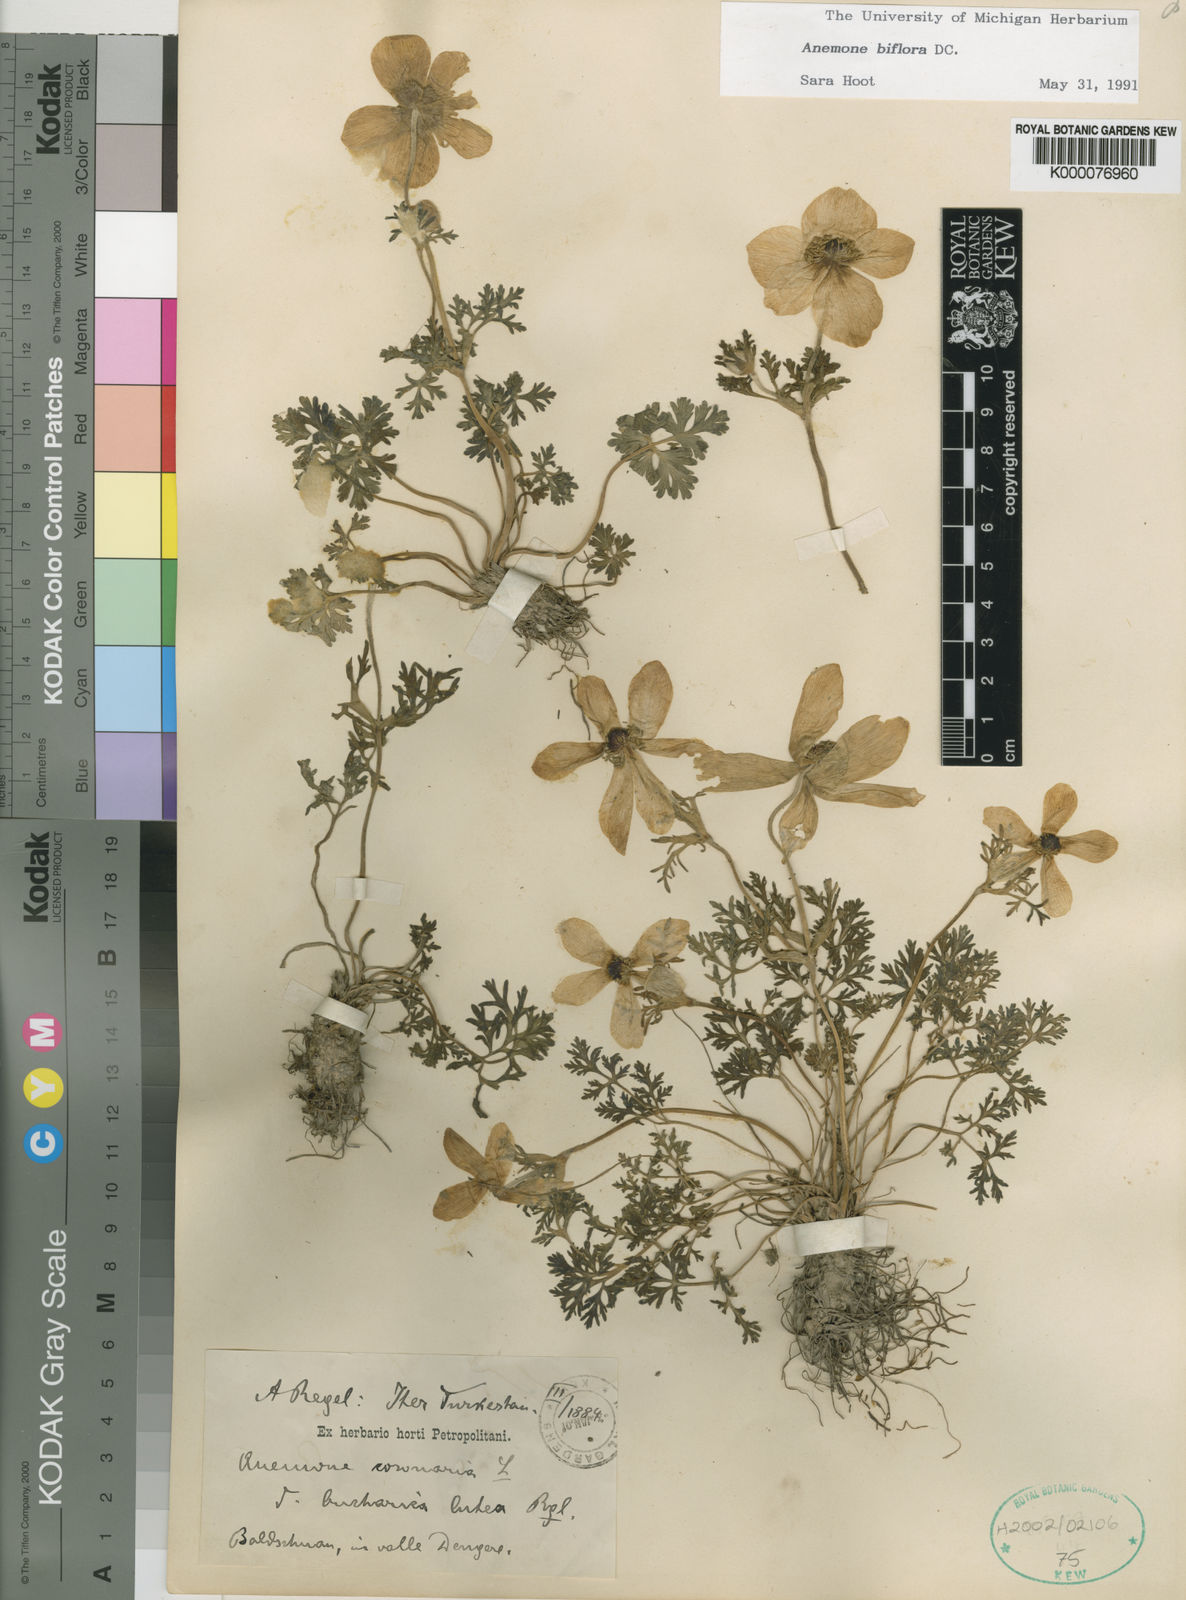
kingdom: Plantae
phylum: Tracheophyta
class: Magnoliopsida
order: Ranunculales
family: Ranunculaceae
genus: Anemone
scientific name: Anemone biflora
